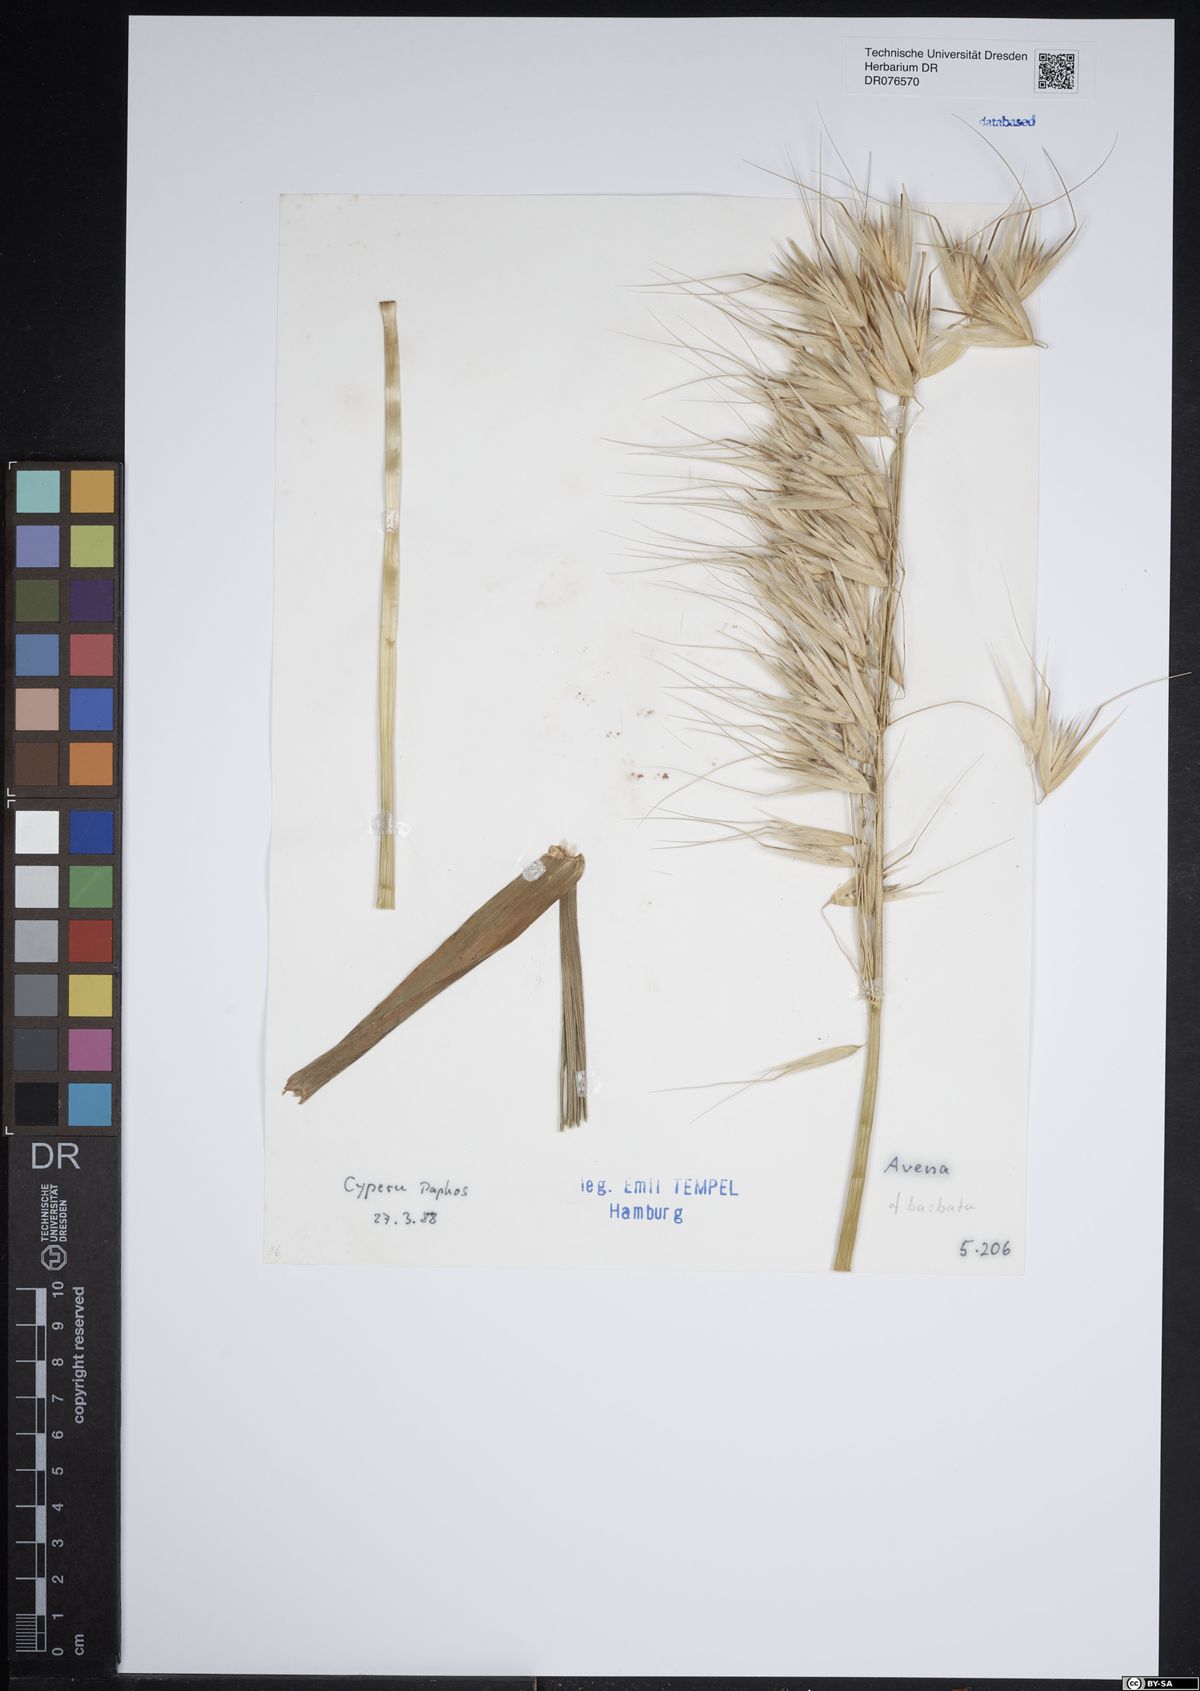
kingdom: Plantae
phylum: Tracheophyta
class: Liliopsida
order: Poales
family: Poaceae
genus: Avena
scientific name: Avena barbata
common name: Slender oat
